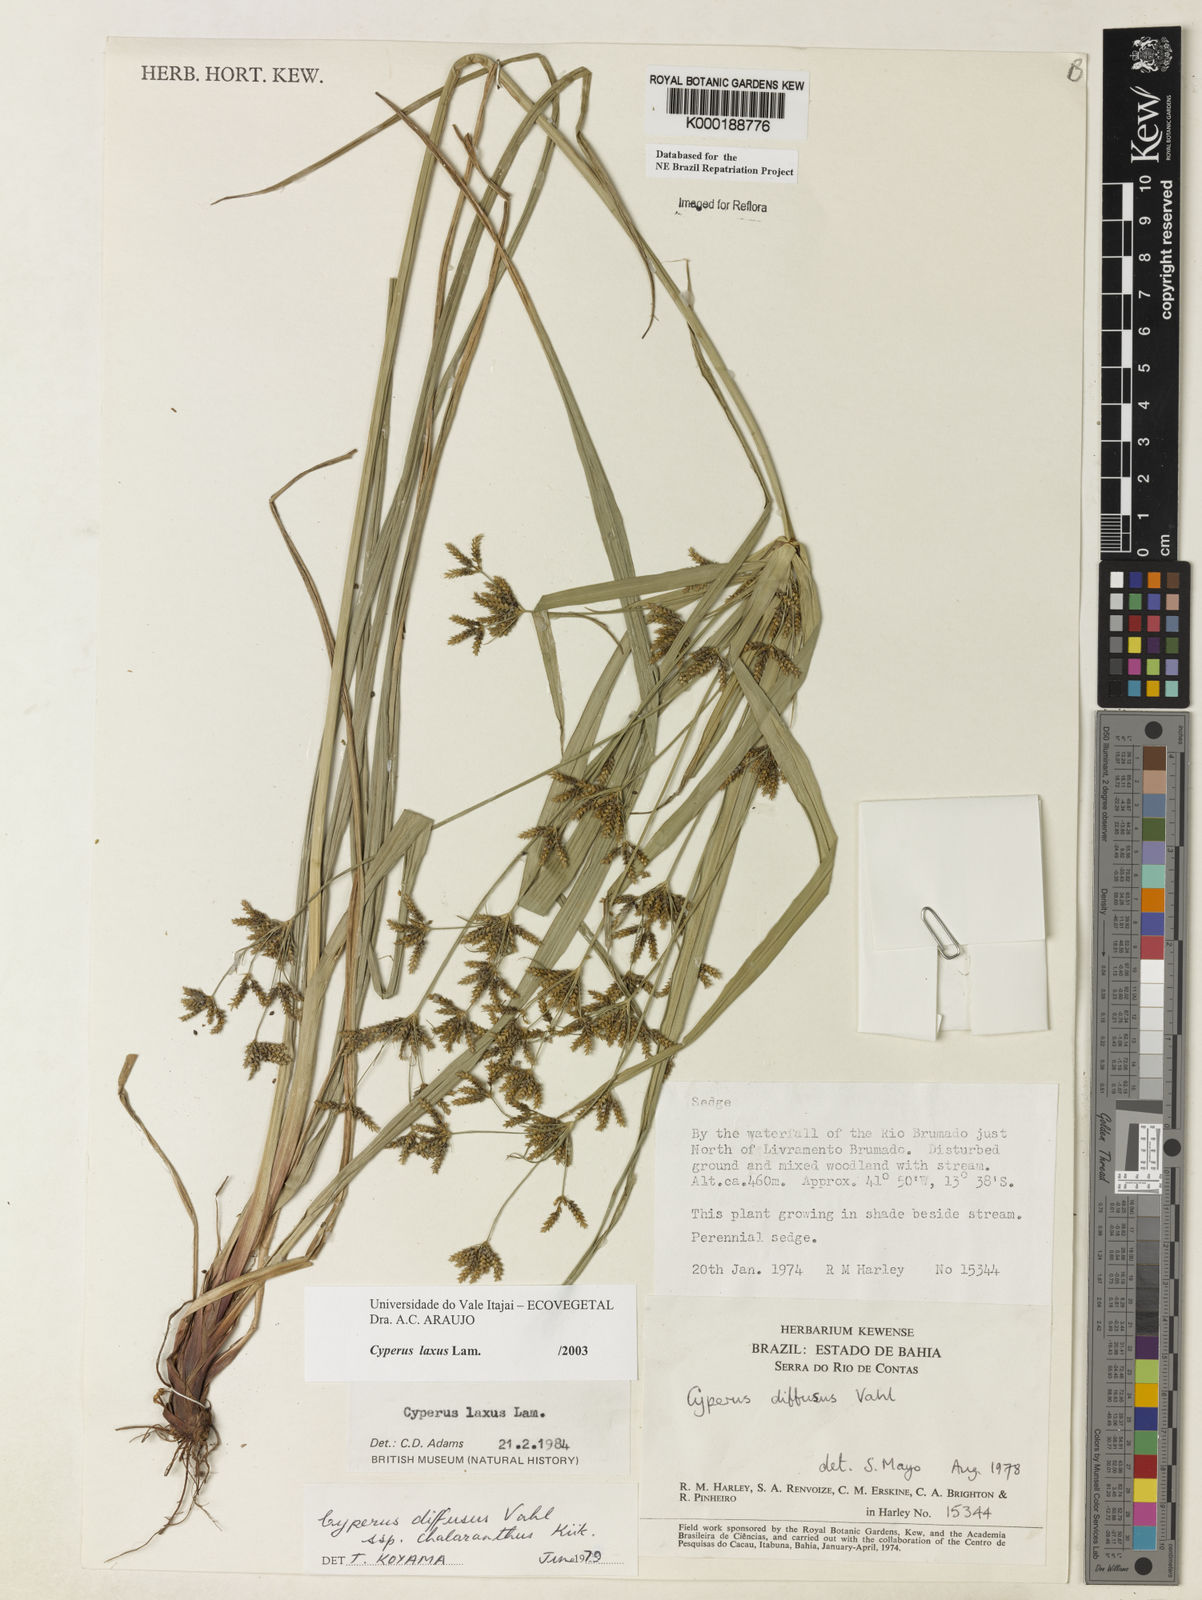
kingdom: Plantae
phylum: Tracheophyta
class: Liliopsida
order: Poales
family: Cyperaceae
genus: Cyperus
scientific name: Cyperus
